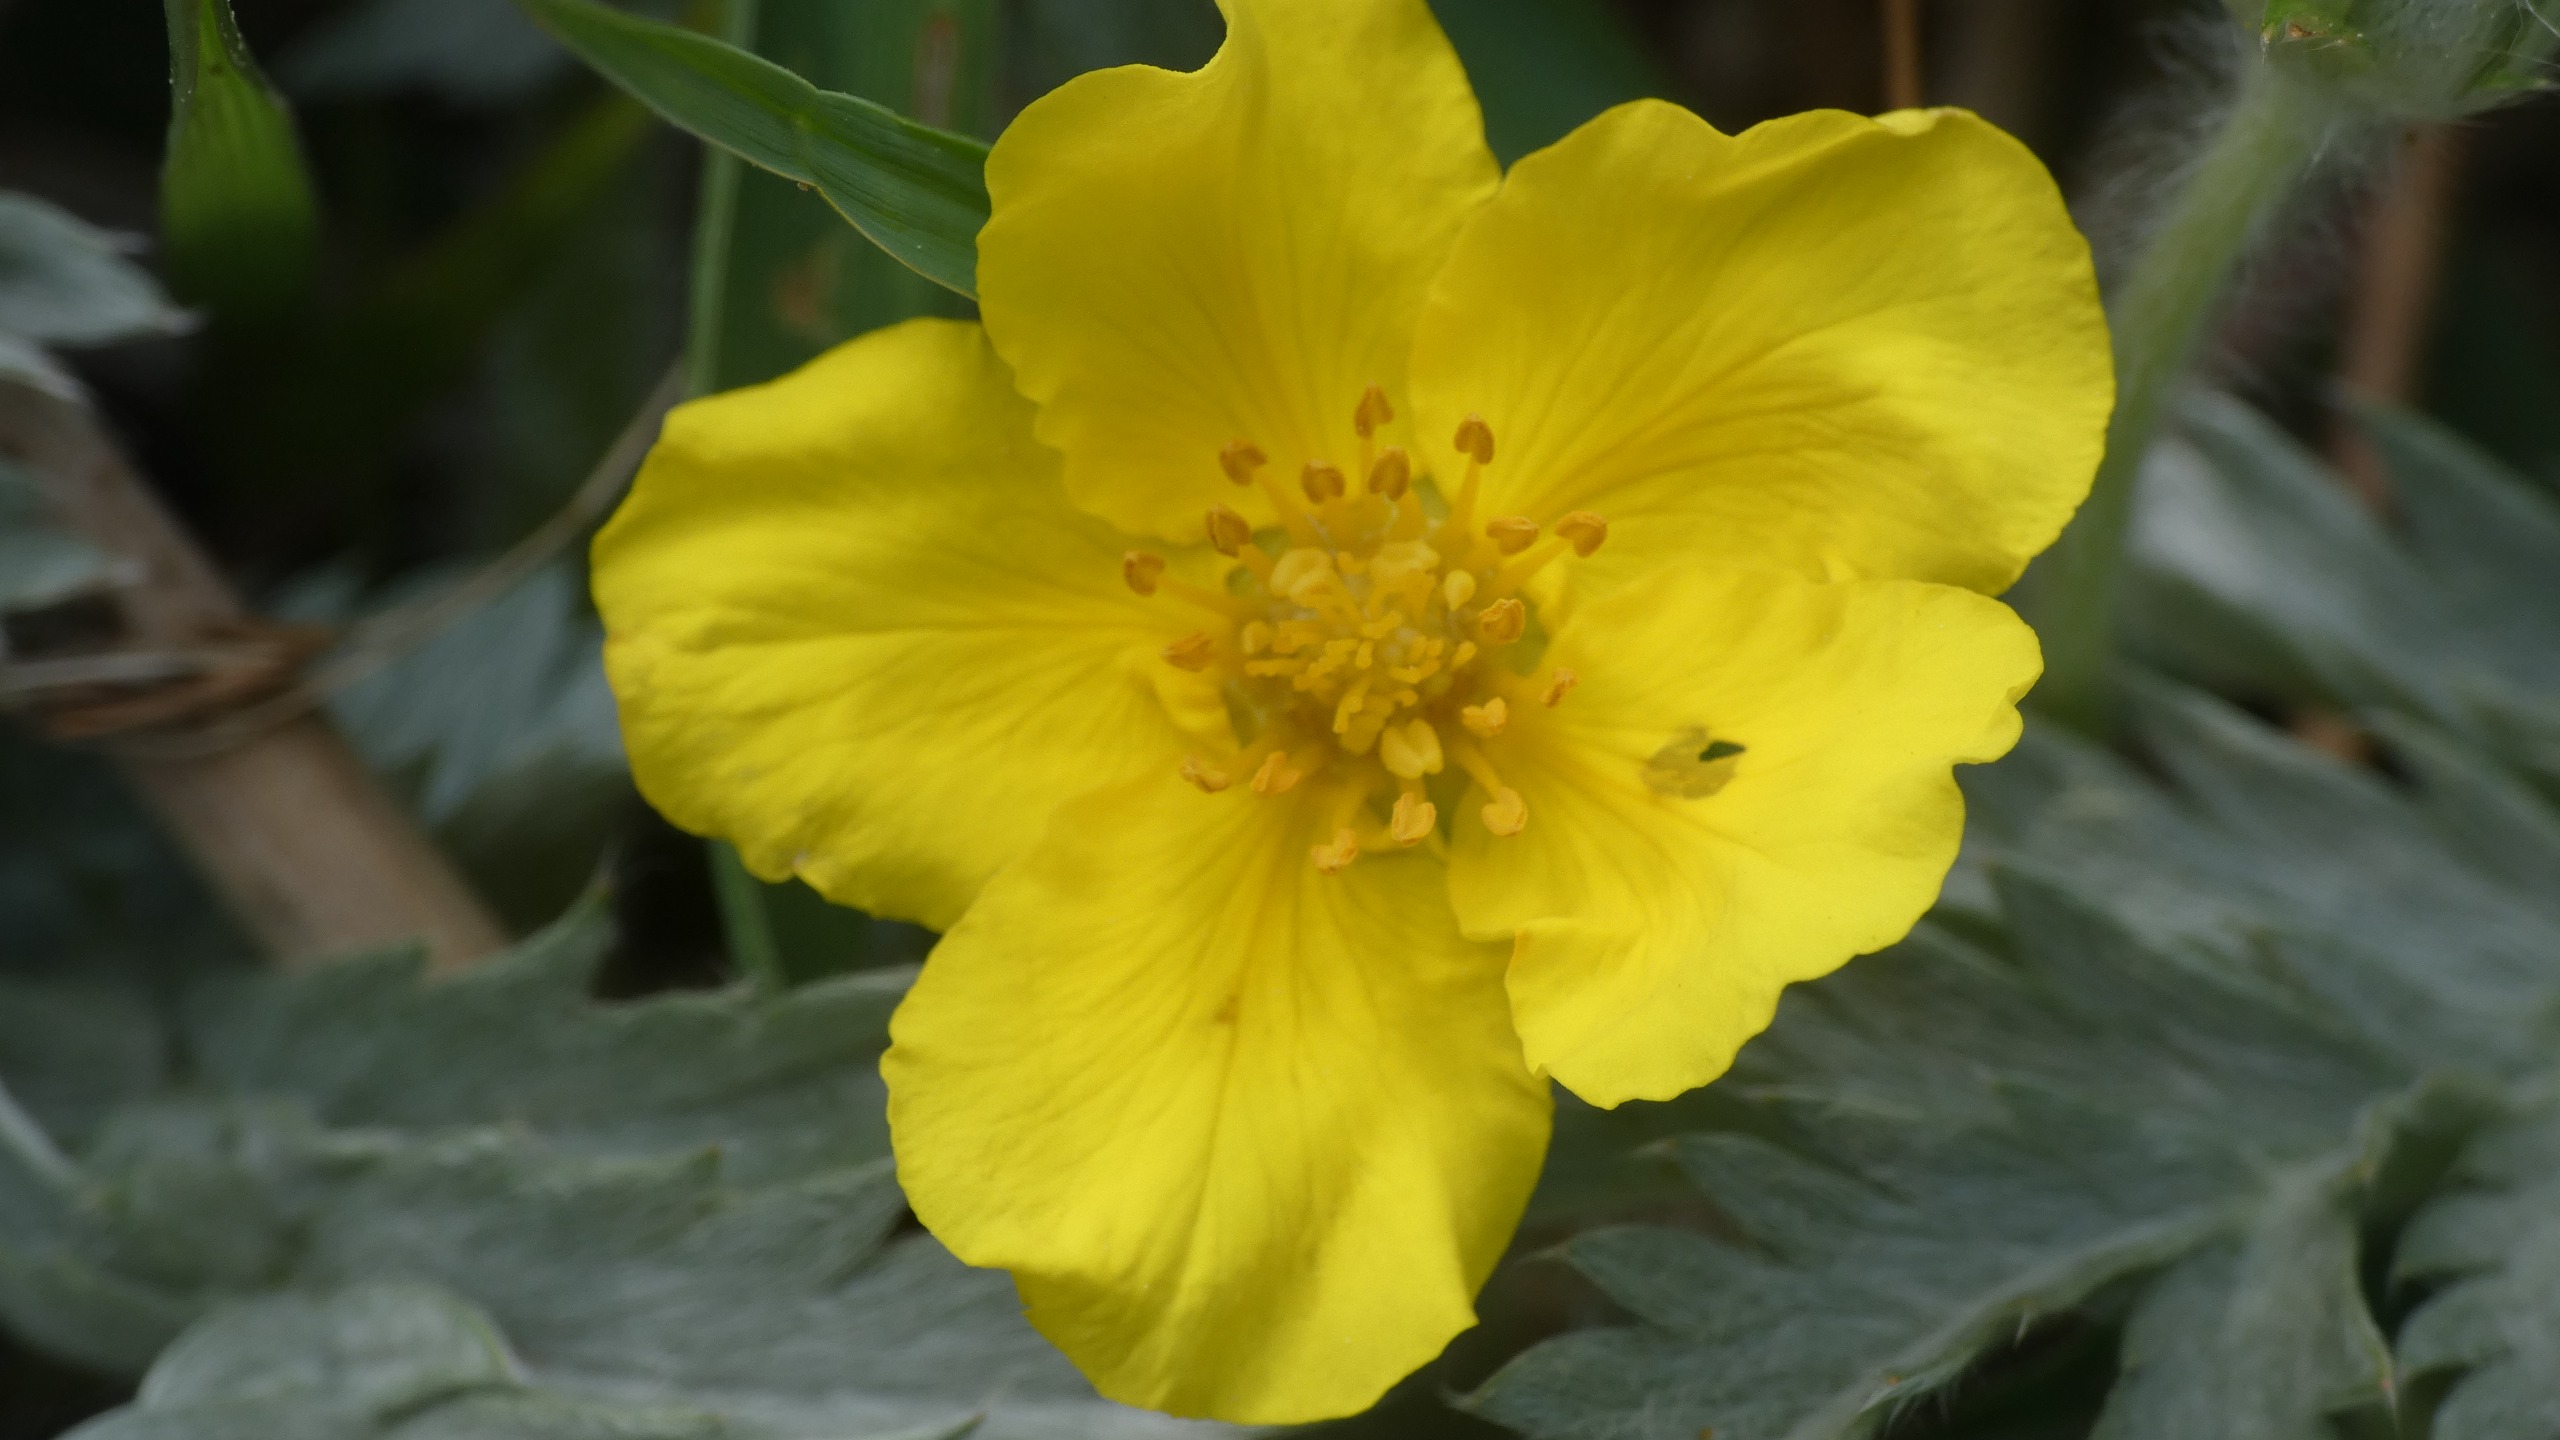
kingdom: Plantae
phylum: Tracheophyta
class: Magnoliopsida
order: Rosales
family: Rosaceae
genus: Argentina
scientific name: Argentina anserina
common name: Gåsepotentil
